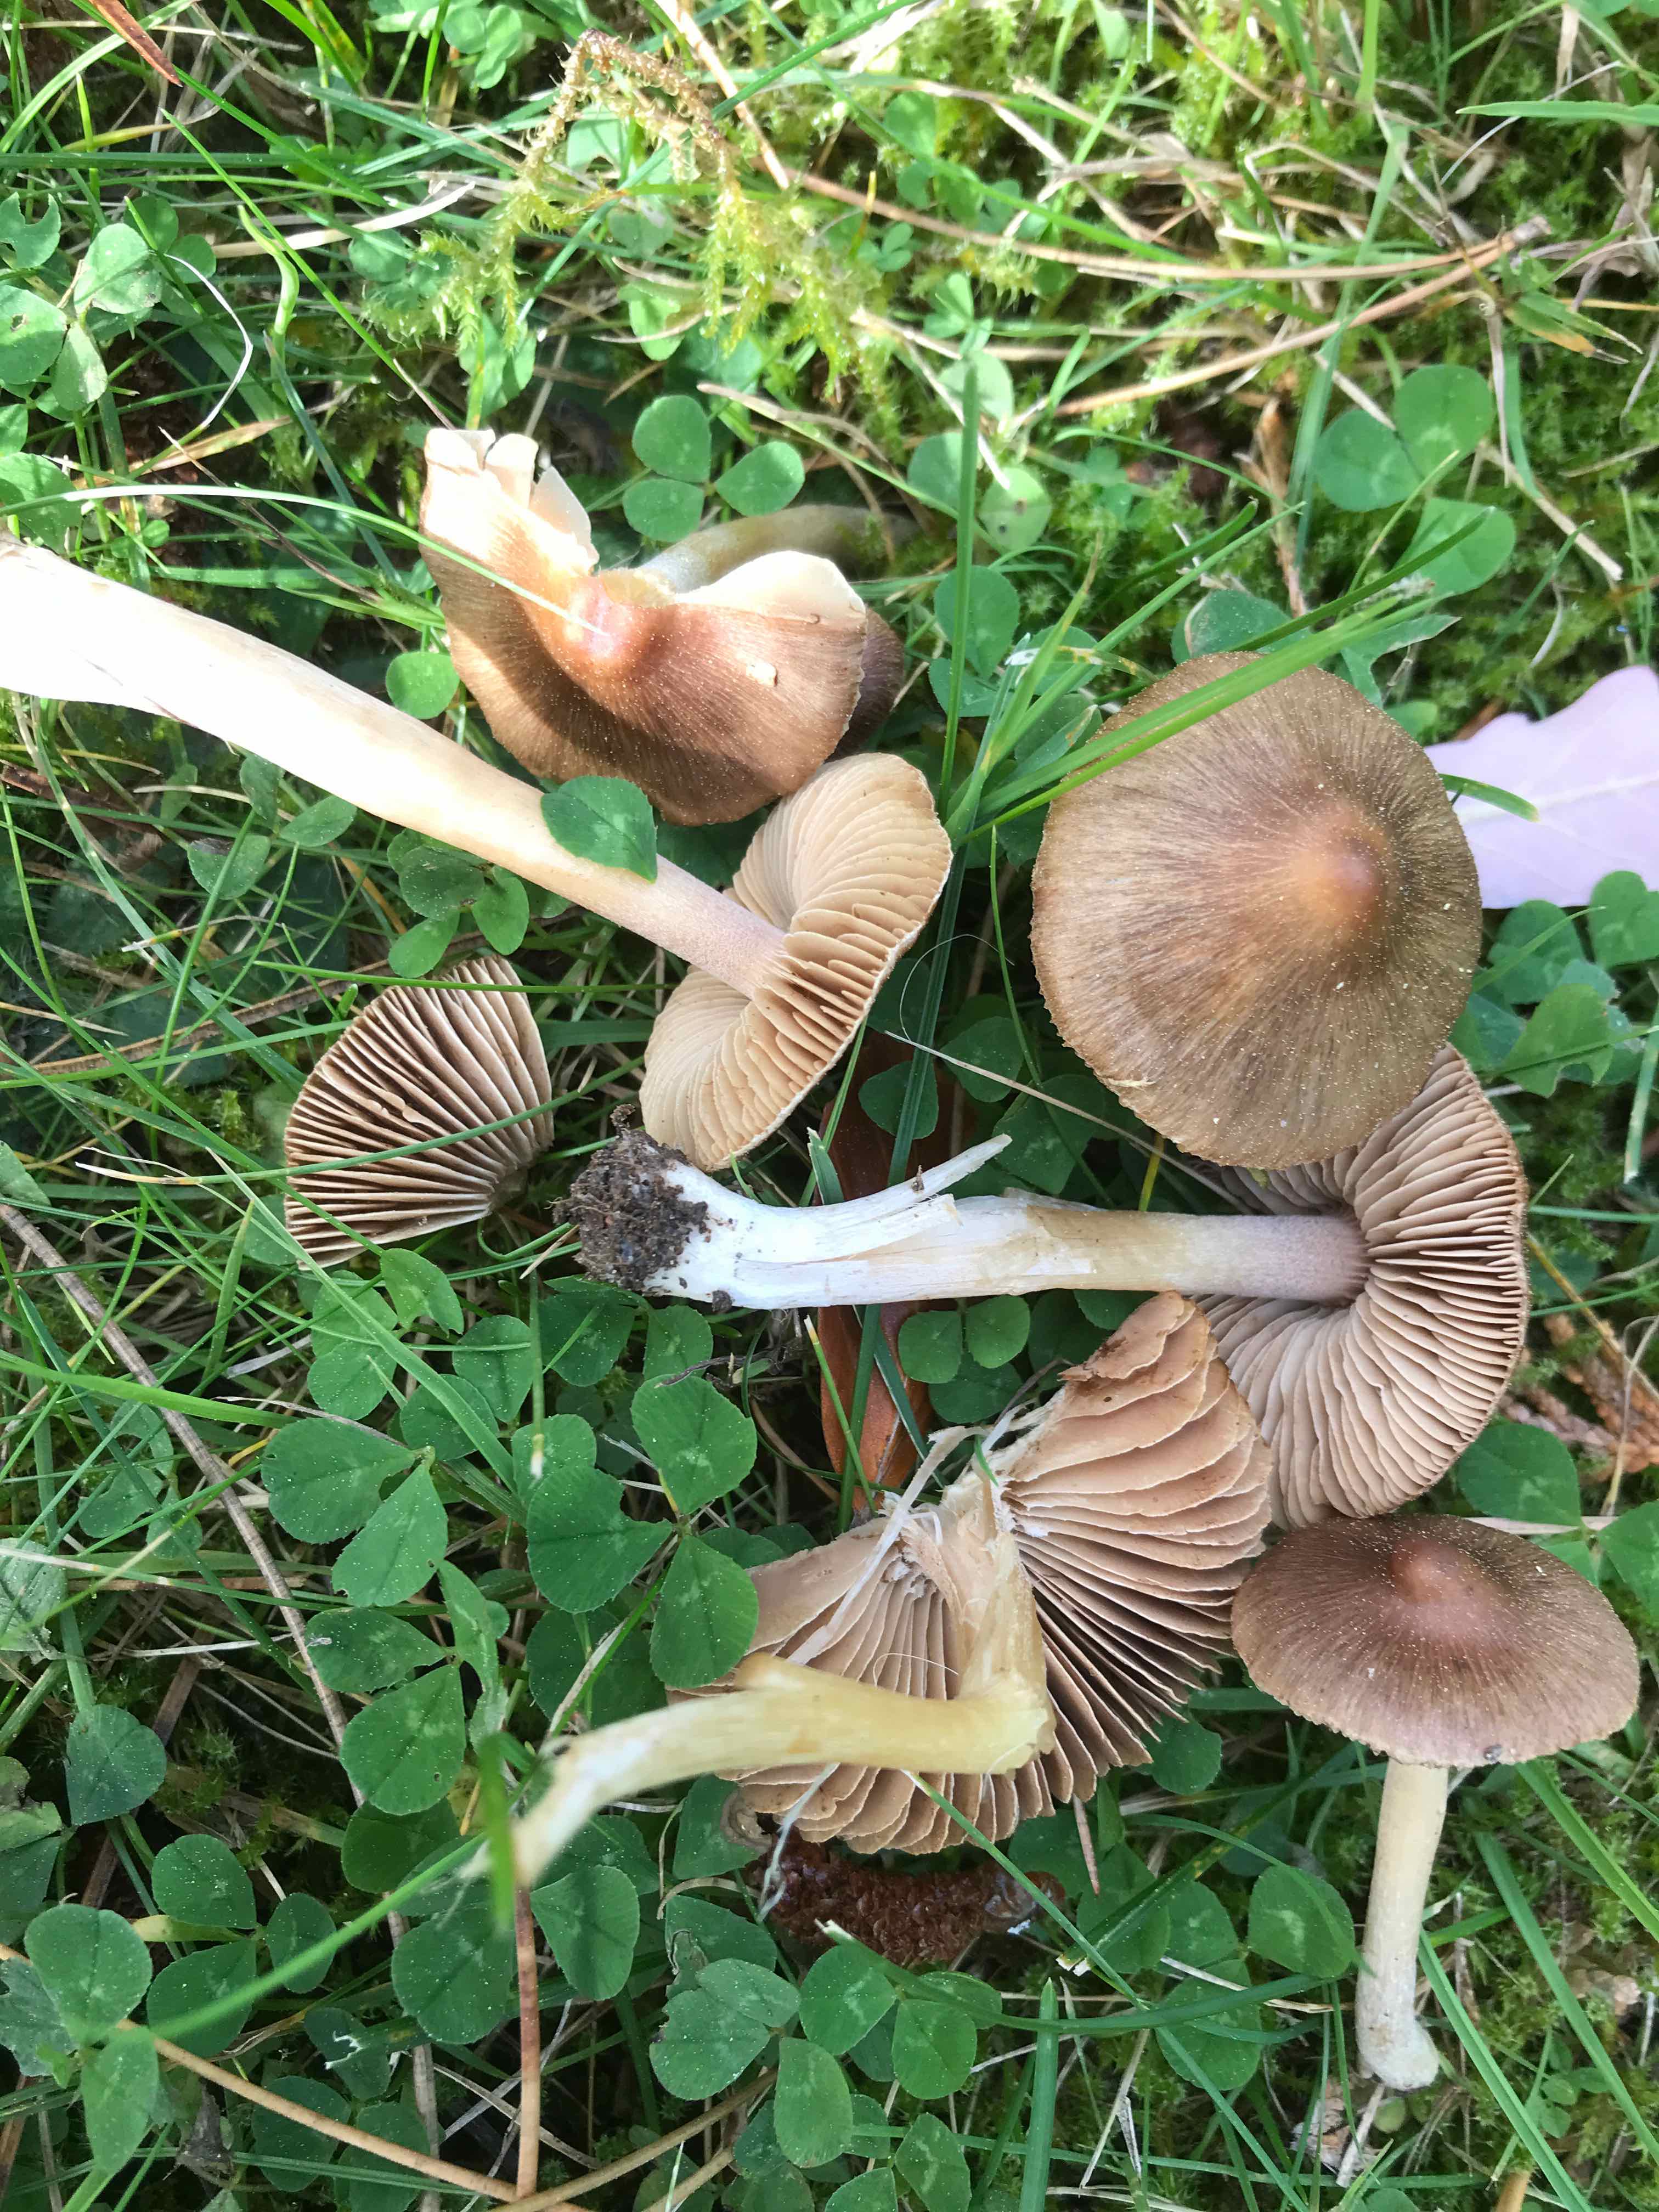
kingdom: Fungi
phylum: Basidiomycota
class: Agaricomycetes
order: Agaricales
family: Inocybaceae
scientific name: Inocybaceae
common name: trævlhatfamilien
